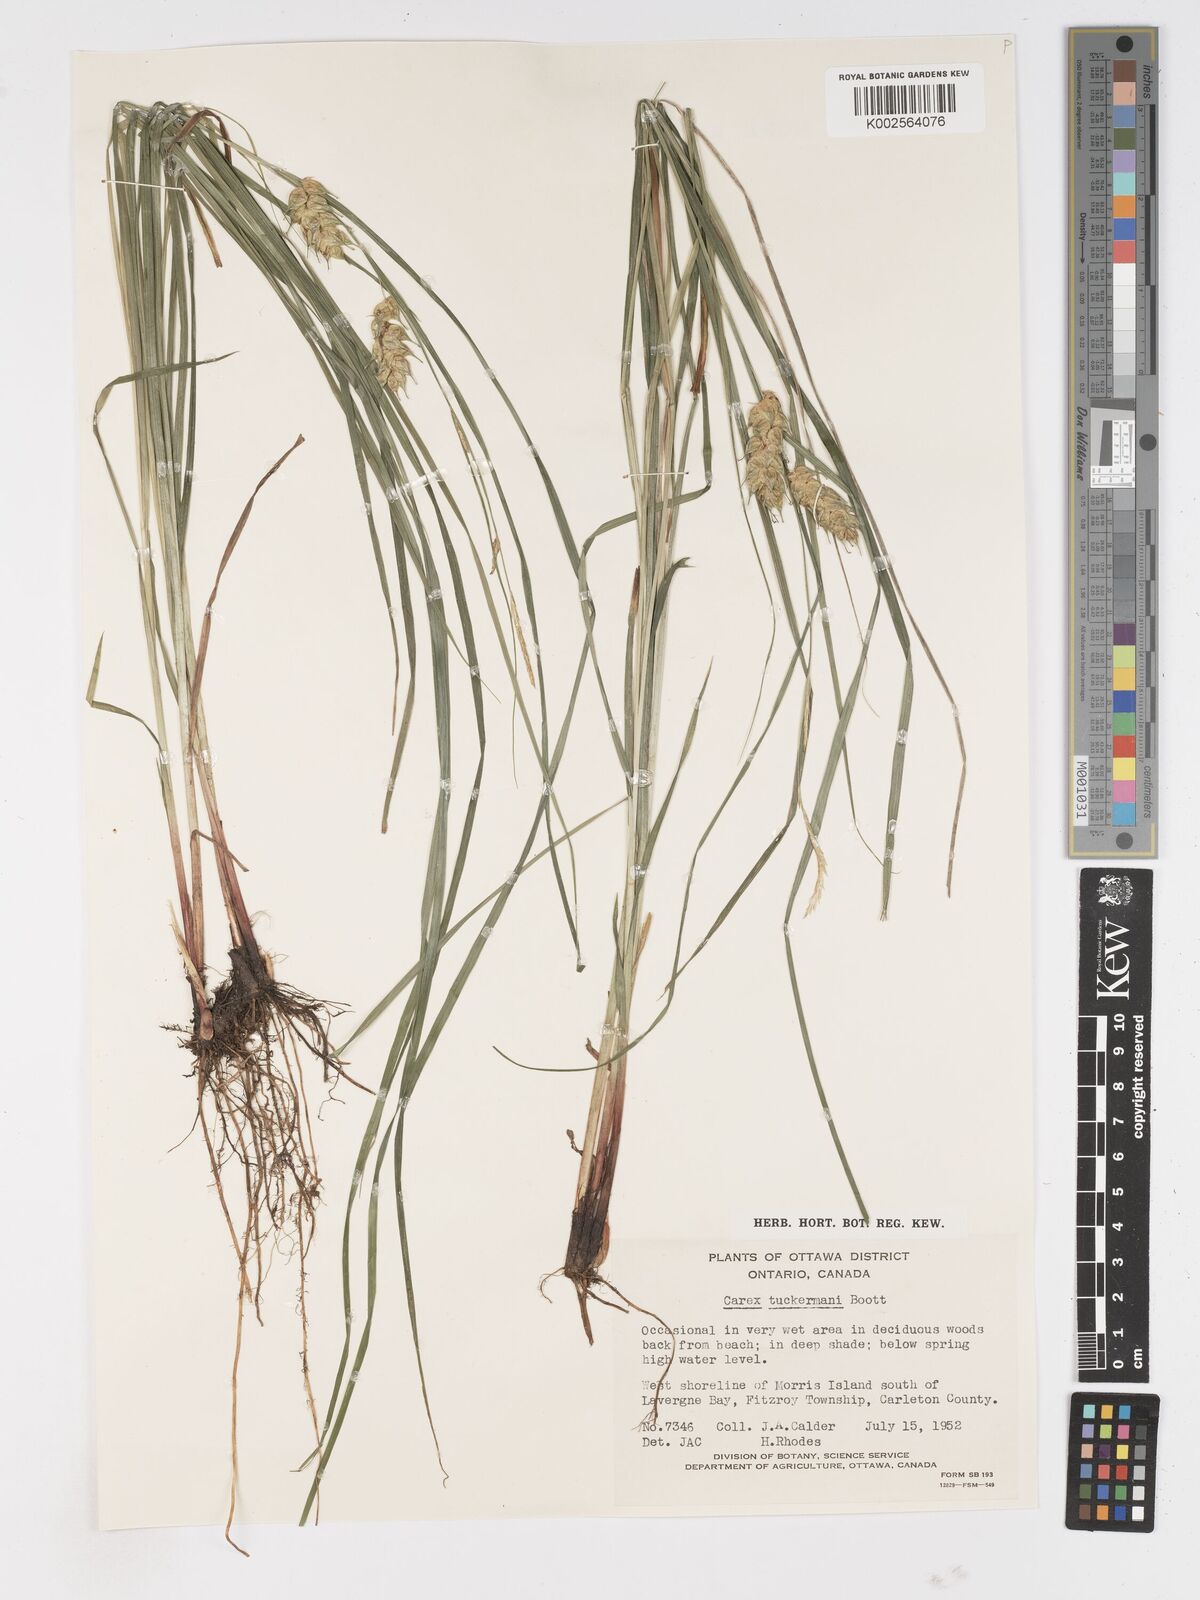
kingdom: Plantae
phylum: Tracheophyta
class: Liliopsida
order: Poales
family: Cyperaceae
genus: Carex
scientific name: Carex tuckermanii
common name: Tuckerman's sedge
